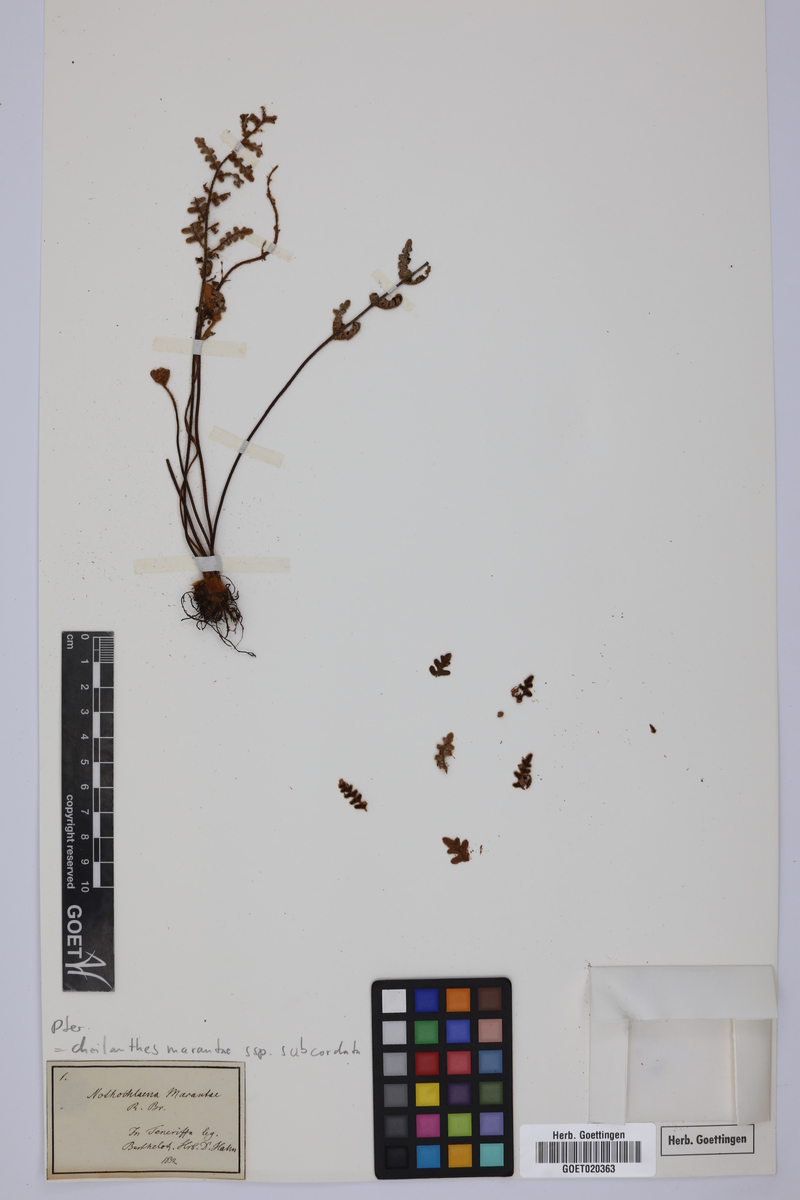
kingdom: Plantae
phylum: Tracheophyta
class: Polypodiopsida
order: Polypodiales
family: Pteridaceae
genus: Paragymnopteris
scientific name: Paragymnopteris marantae
